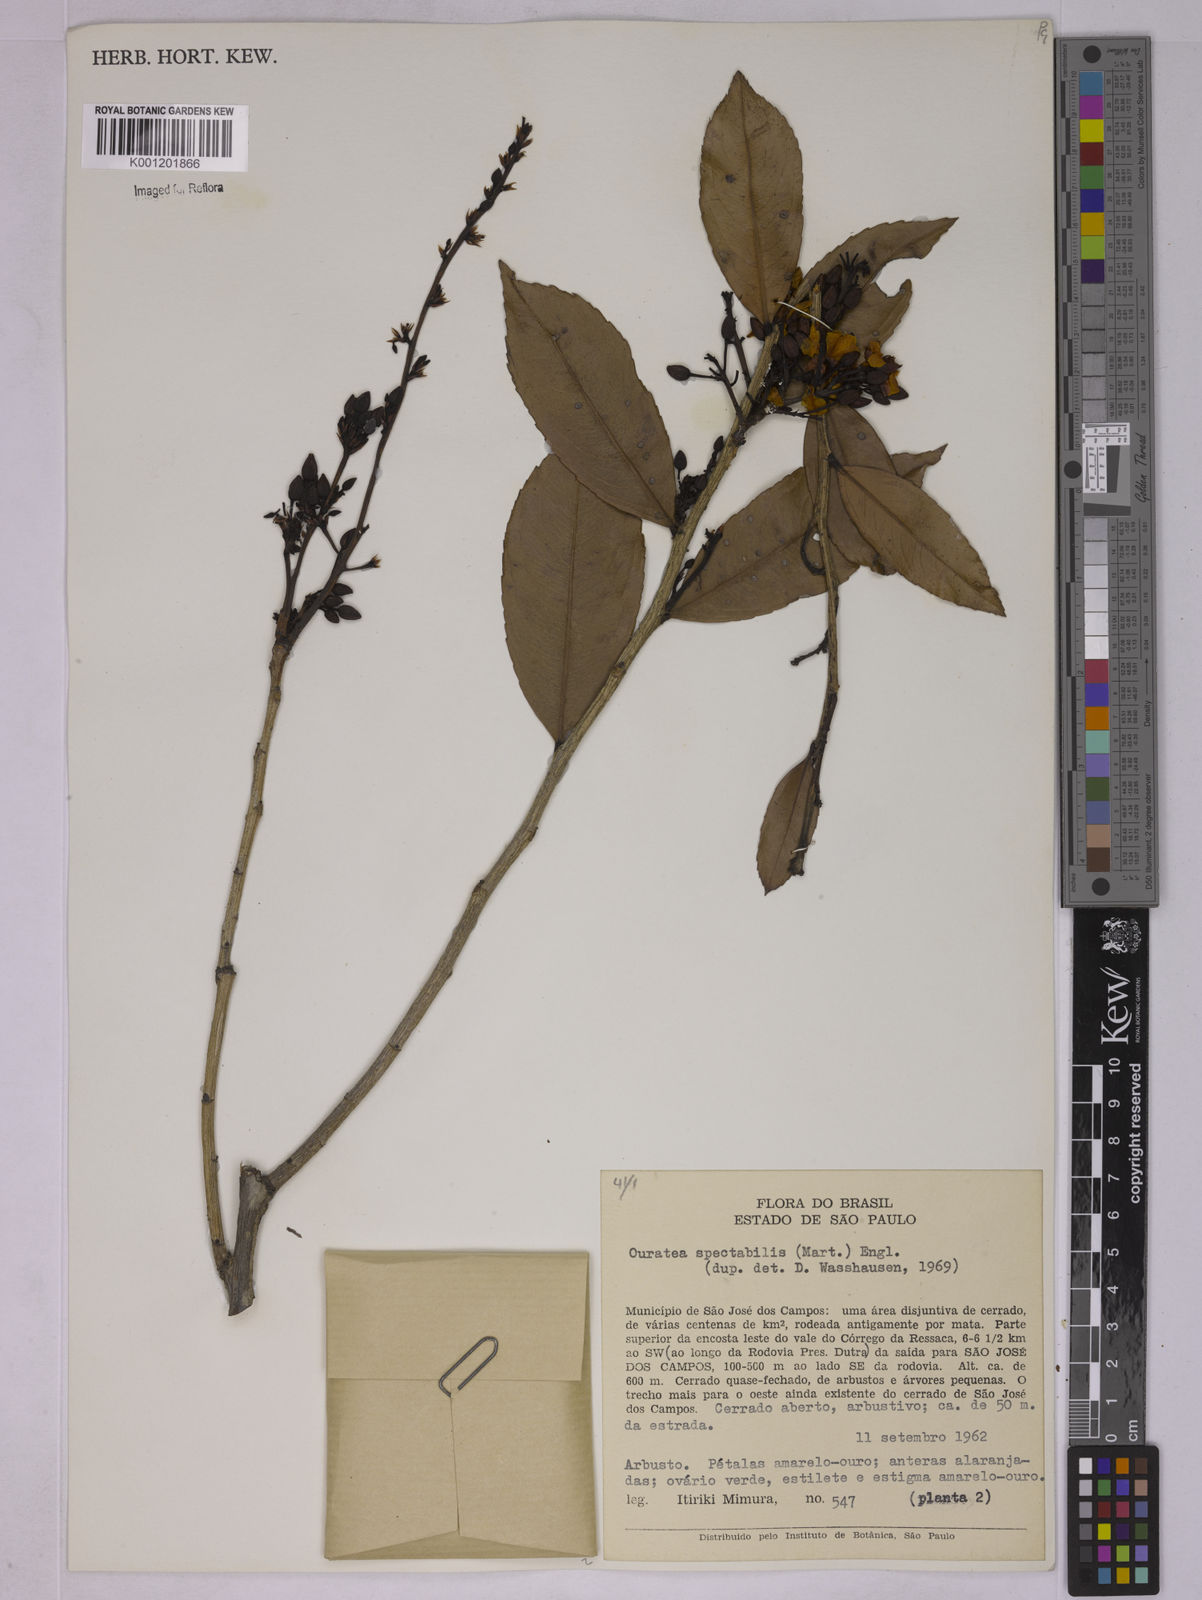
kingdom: Plantae
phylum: Tracheophyta
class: Magnoliopsida
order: Malpighiales
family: Ochnaceae
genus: Ouratea
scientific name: Ouratea spectabilis
